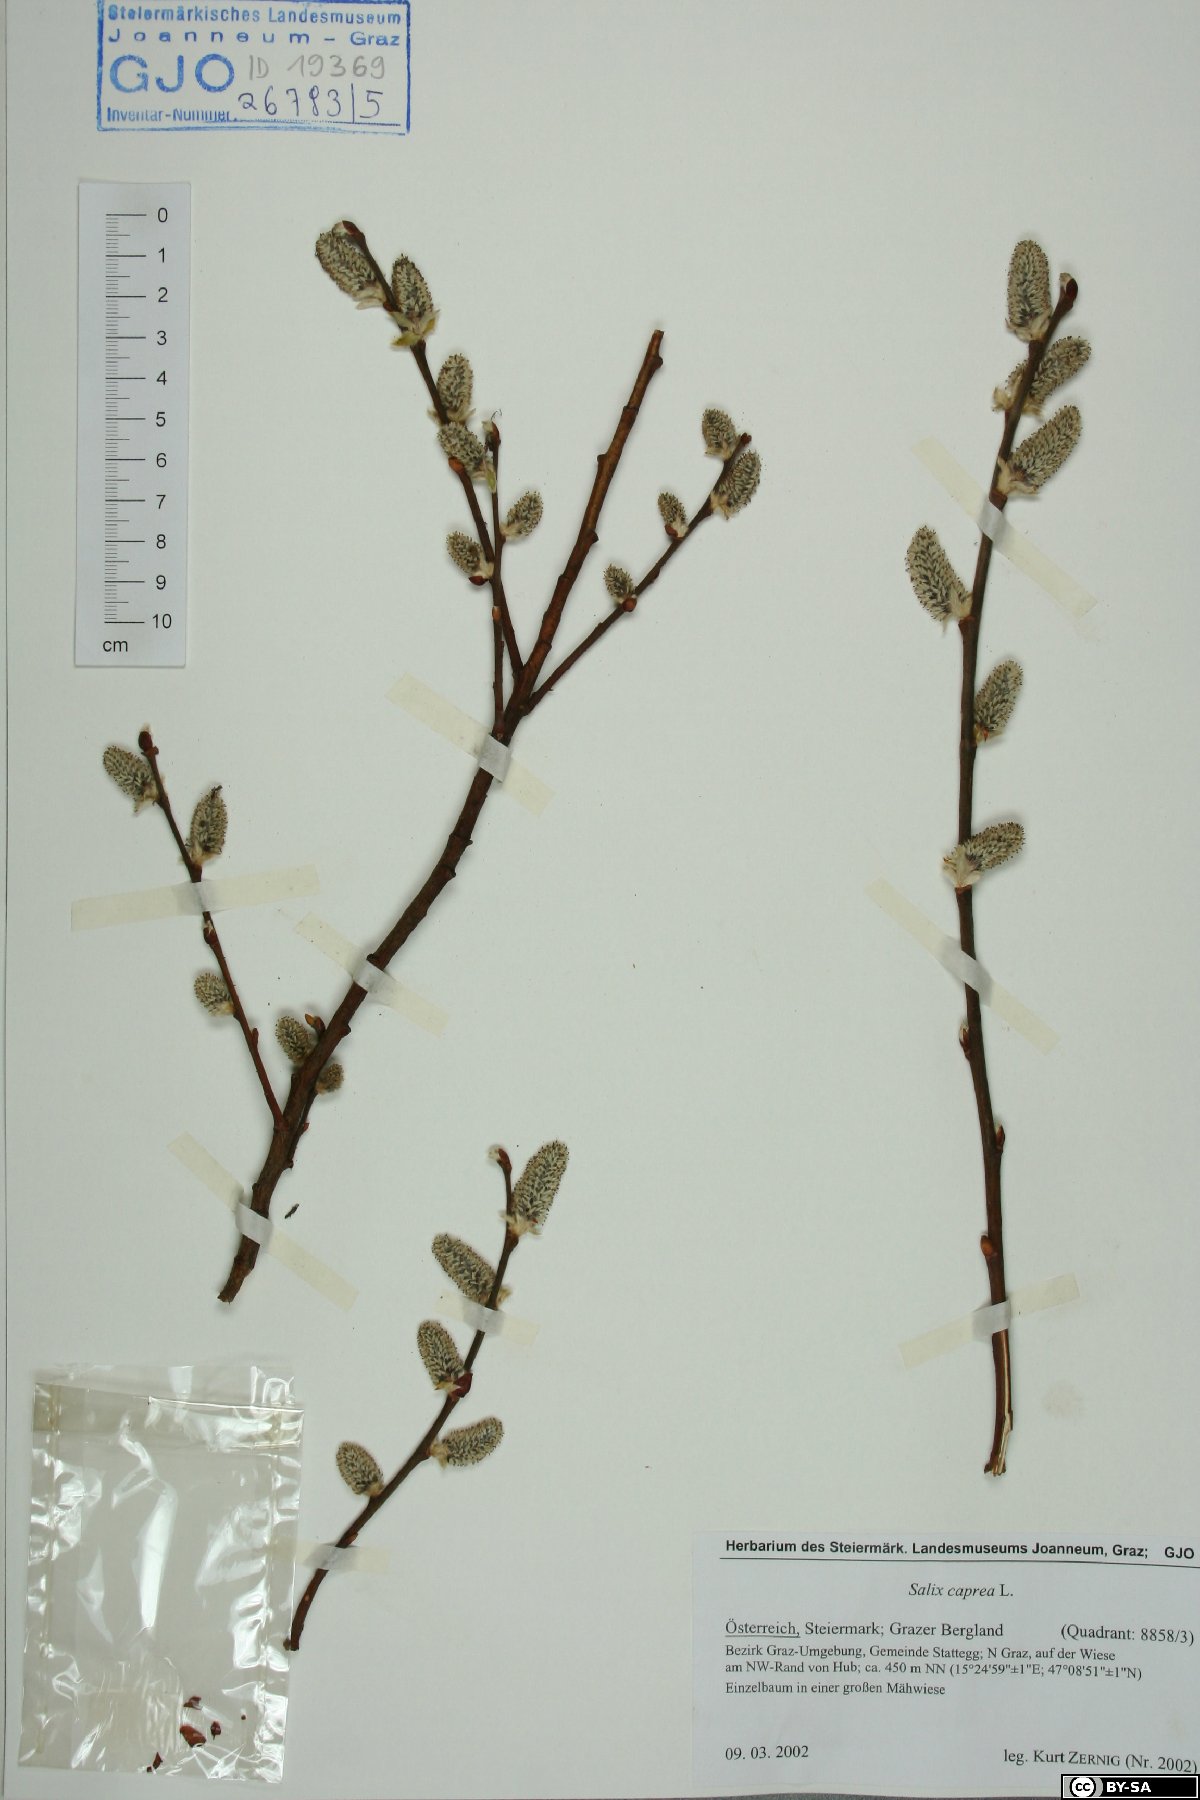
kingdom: Plantae
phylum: Tracheophyta
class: Magnoliopsida
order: Malpighiales
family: Salicaceae
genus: Salix
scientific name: Salix caprea
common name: Goat willow
